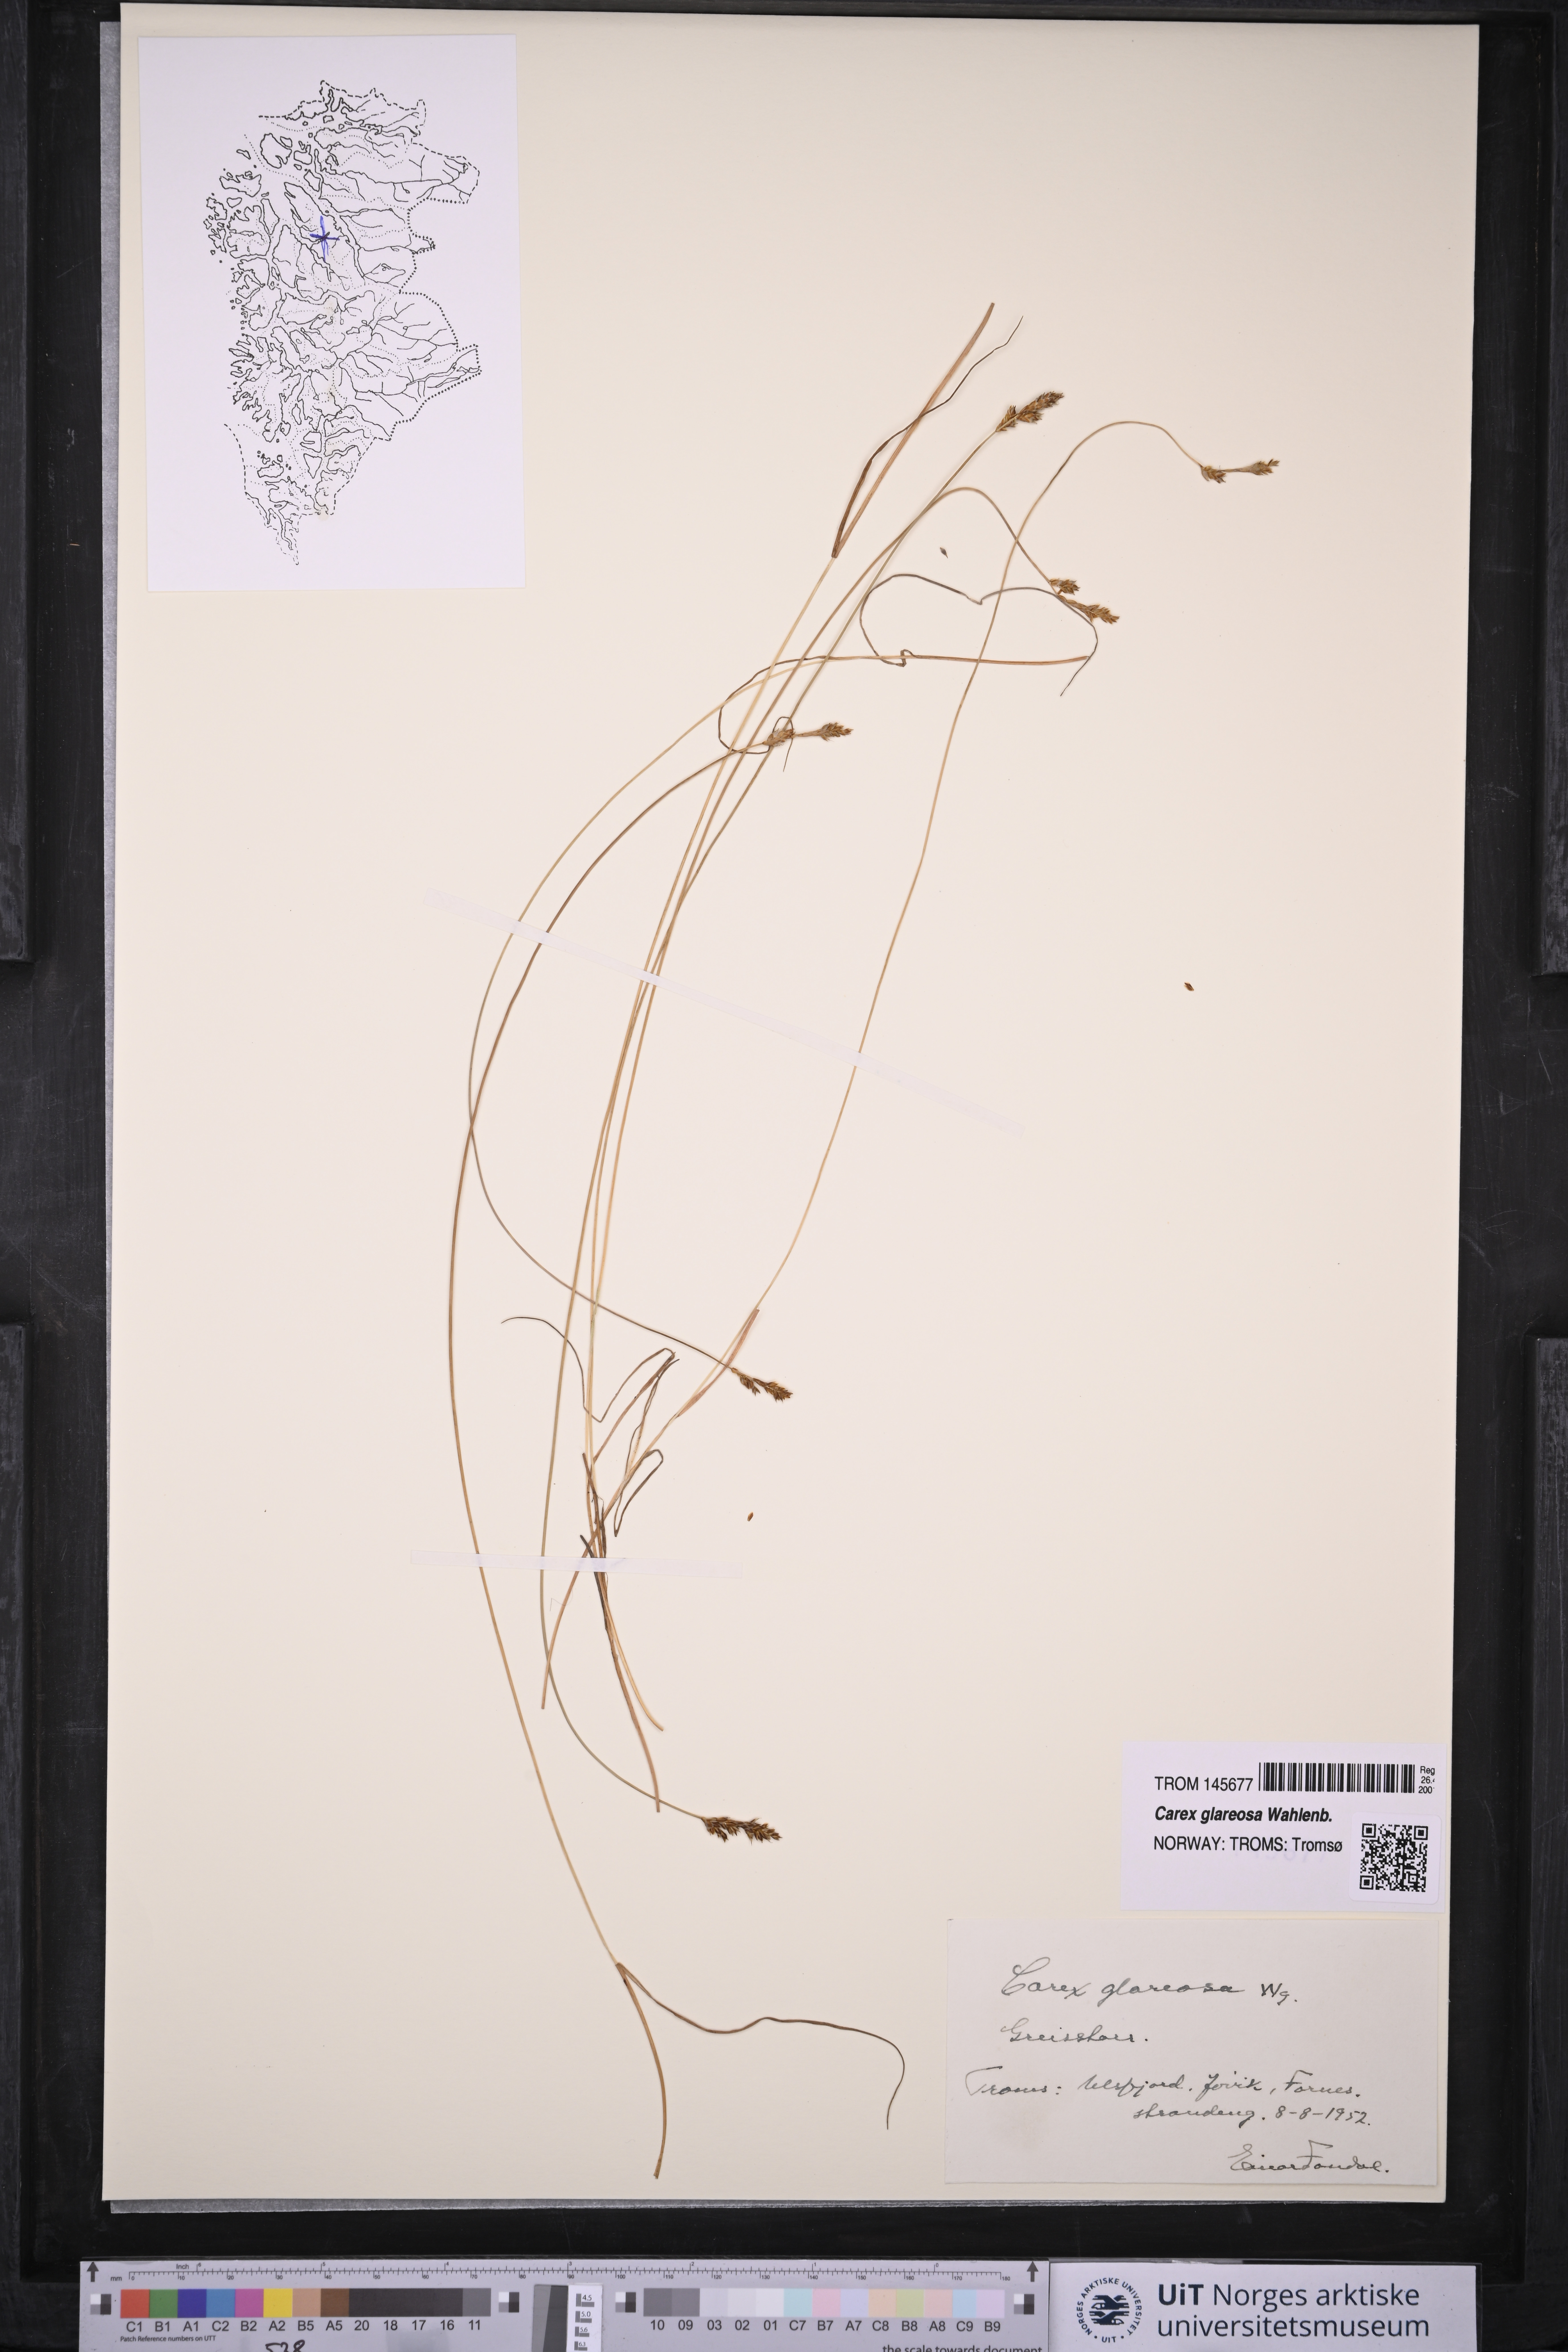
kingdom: Plantae
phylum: Tracheophyta
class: Liliopsida
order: Poales
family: Cyperaceae
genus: Carex
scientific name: Carex glareosa
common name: Clustered sedge
